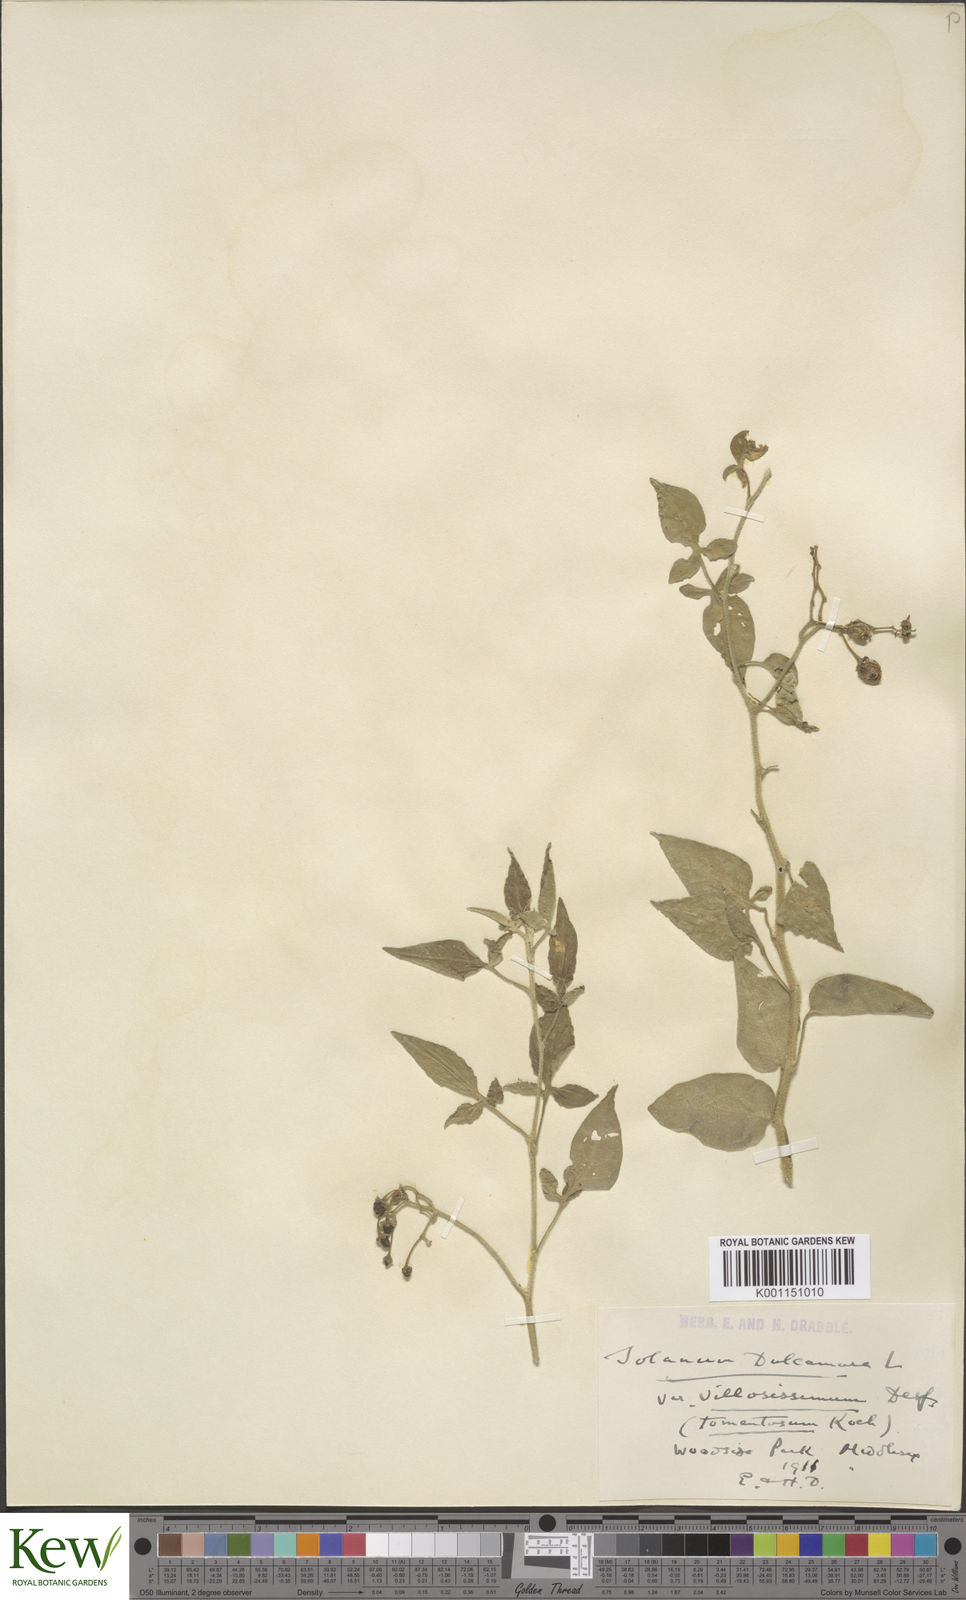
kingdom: Plantae
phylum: Tracheophyta
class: Magnoliopsida
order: Solanales
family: Solanaceae
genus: Solanum
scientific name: Solanum dulcamara
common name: Climbing nightshade
